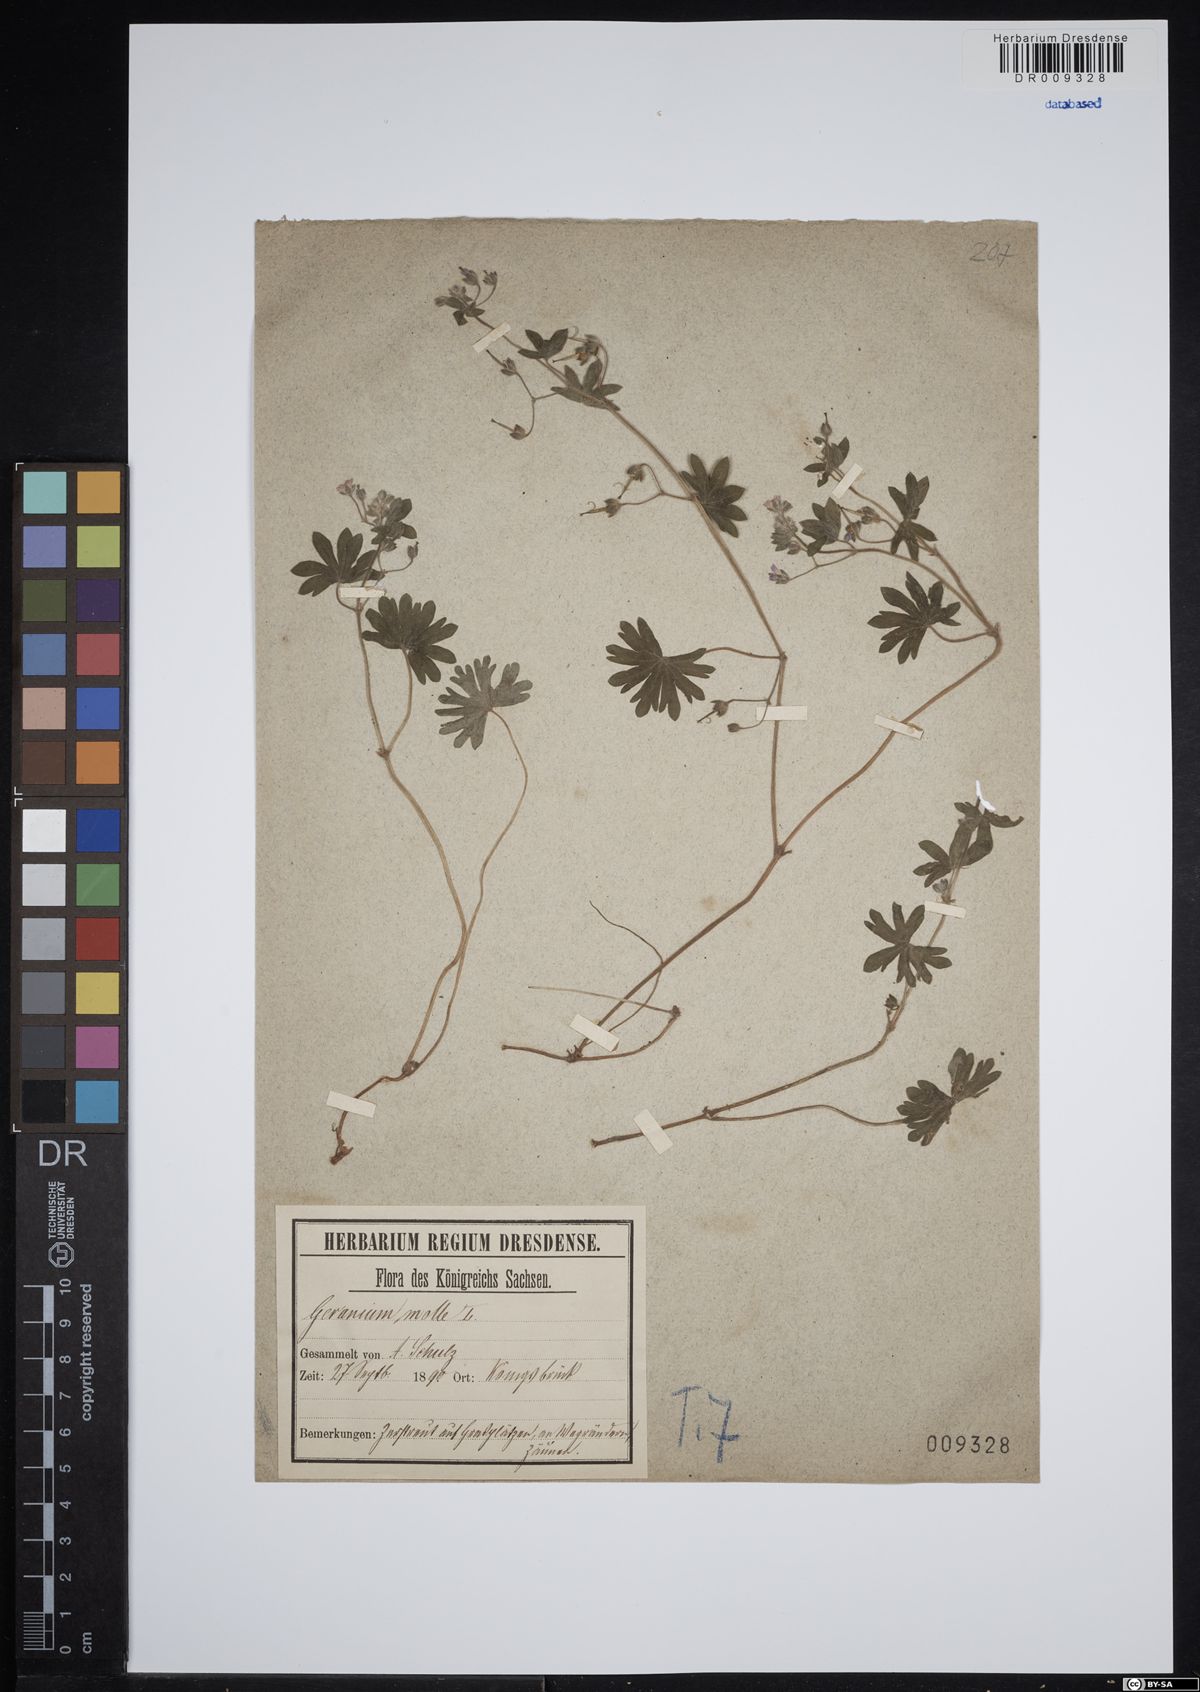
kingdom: Plantae
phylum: Tracheophyta
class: Magnoliopsida
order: Geraniales
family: Geraniaceae
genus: Geranium
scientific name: Geranium molle
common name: Dove's-foot crane's-bill
